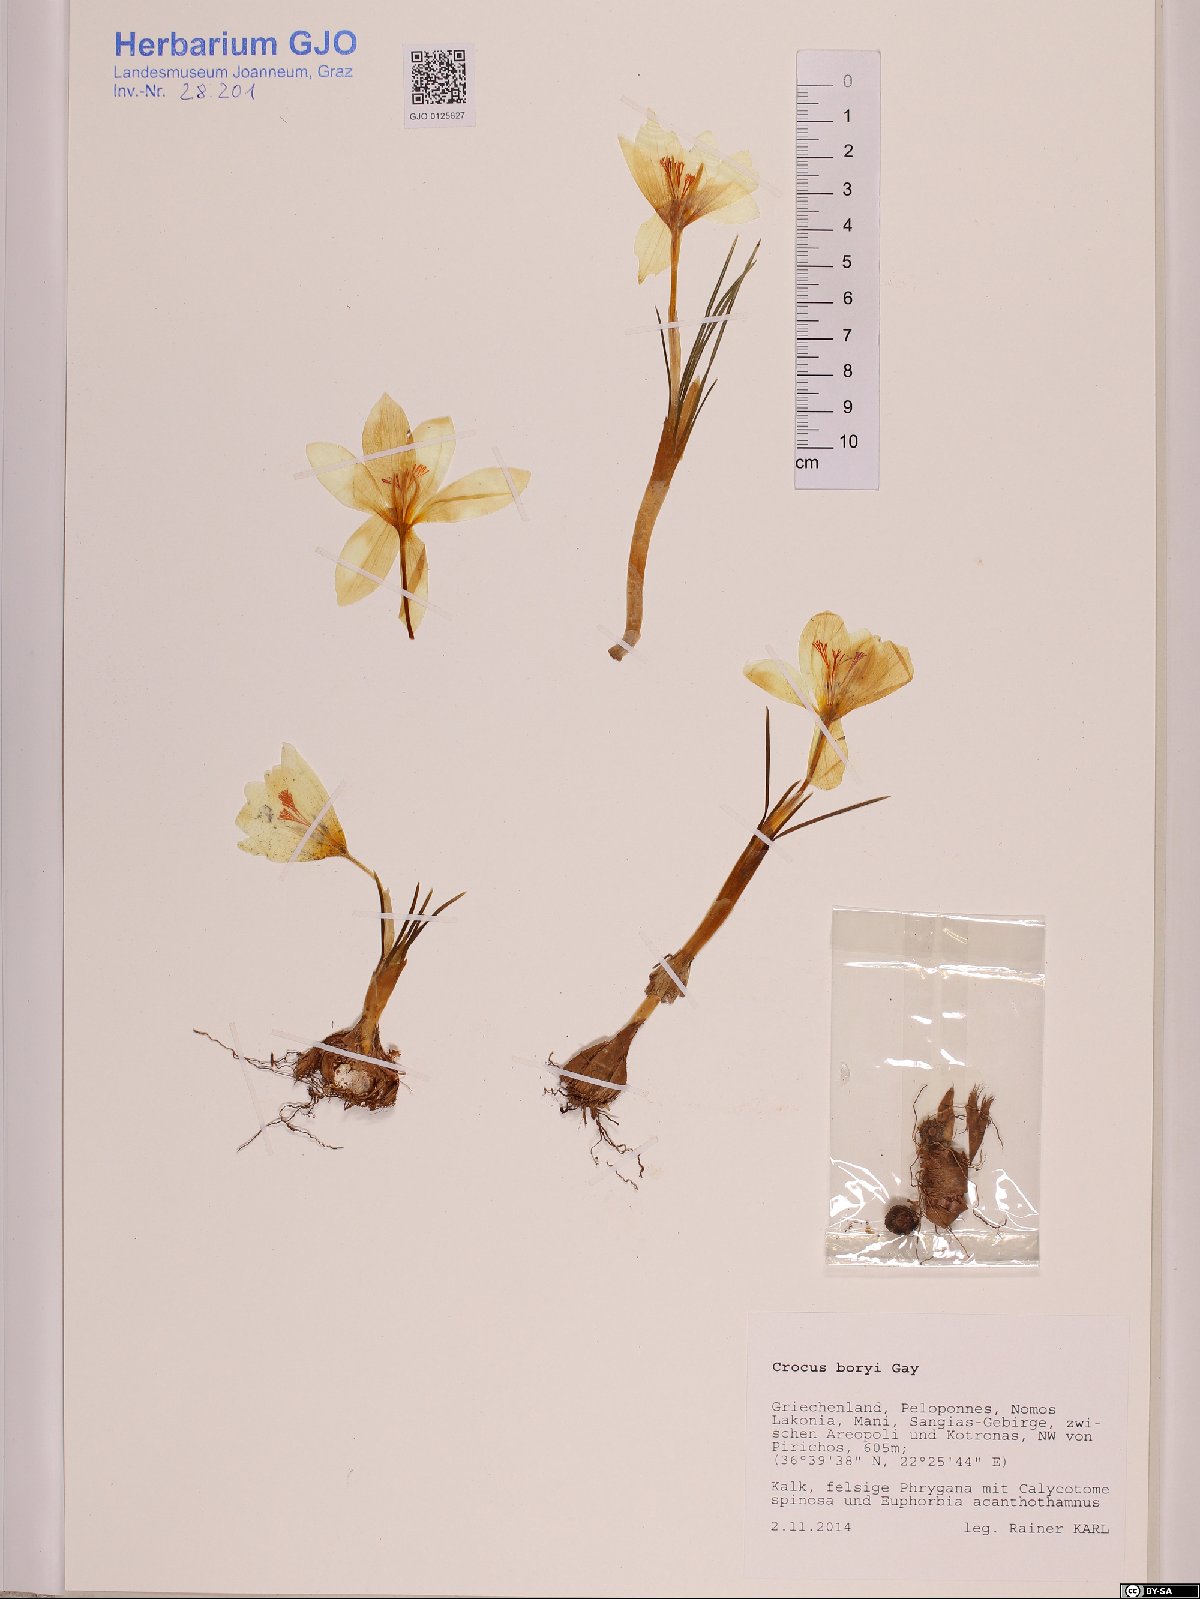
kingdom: Plantae
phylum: Tracheophyta
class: Liliopsida
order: Asparagales
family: Iridaceae
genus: Crocus
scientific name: Crocus boryi
